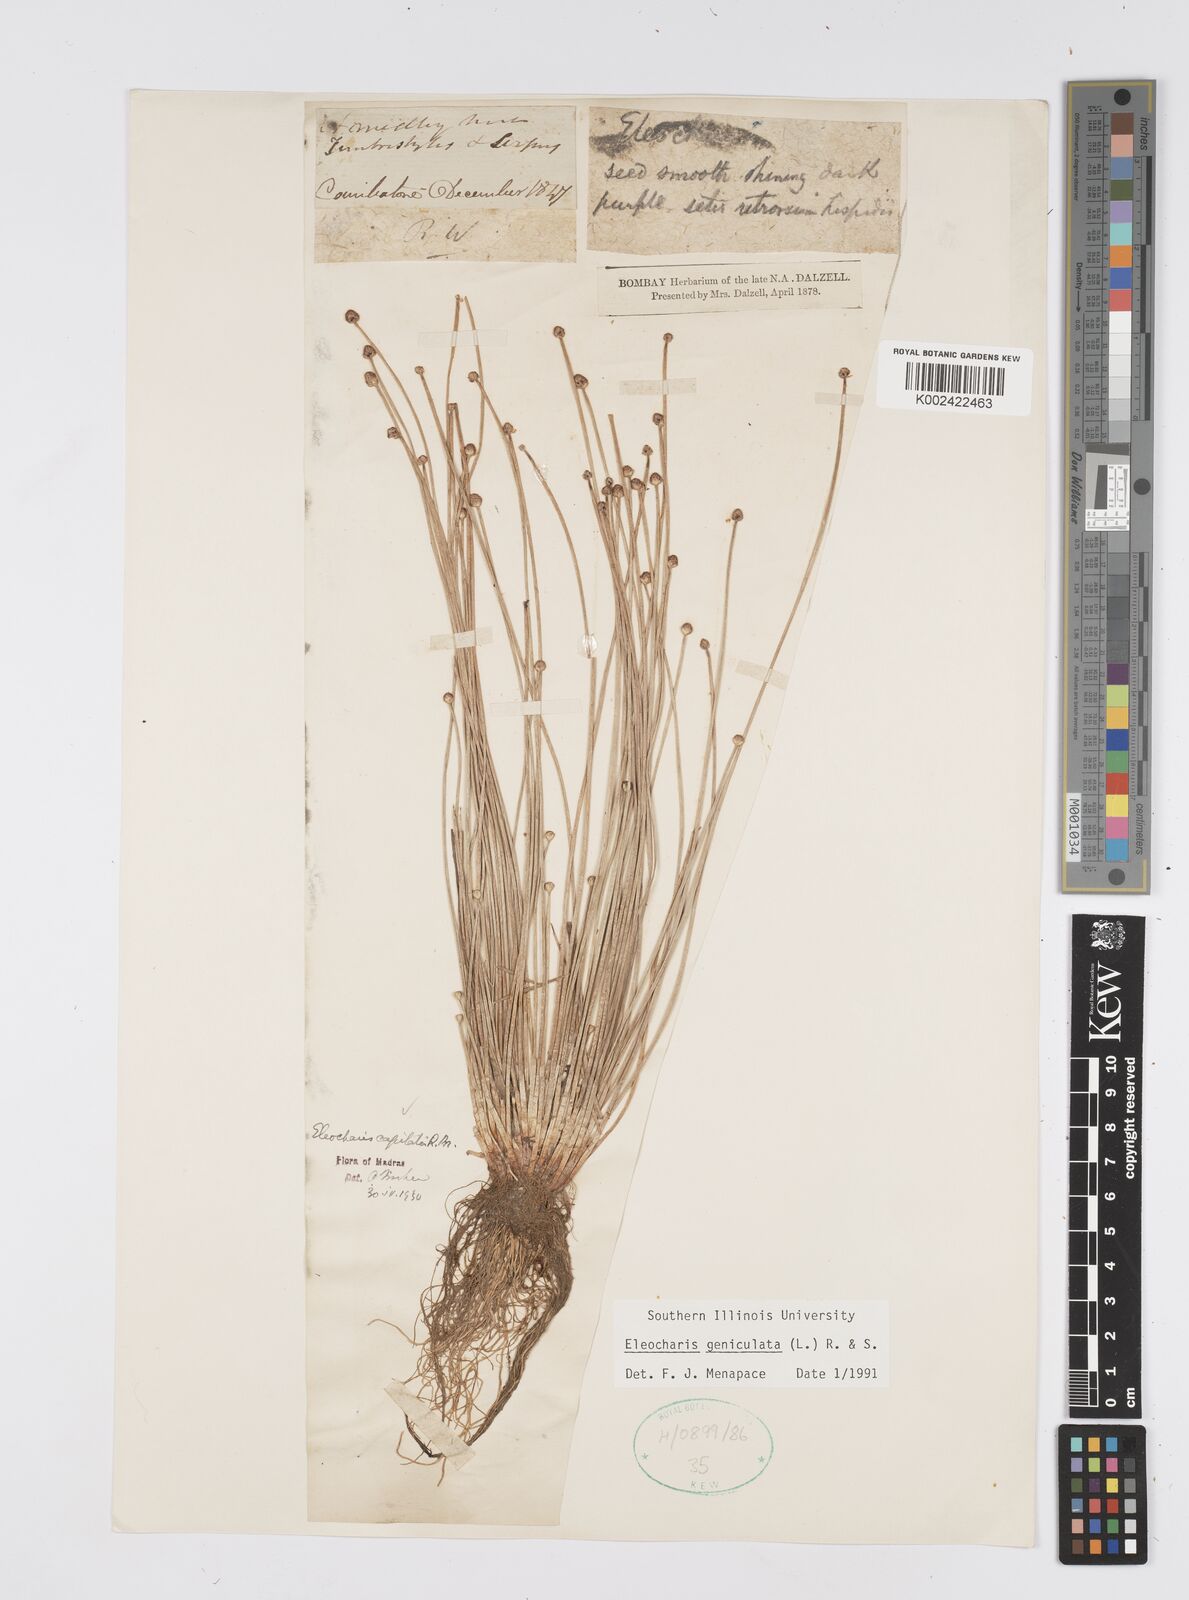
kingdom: Plantae
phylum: Tracheophyta
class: Liliopsida
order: Poales
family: Cyperaceae
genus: Eleocharis
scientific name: Eleocharis geniculata
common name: Canada spikesedge
